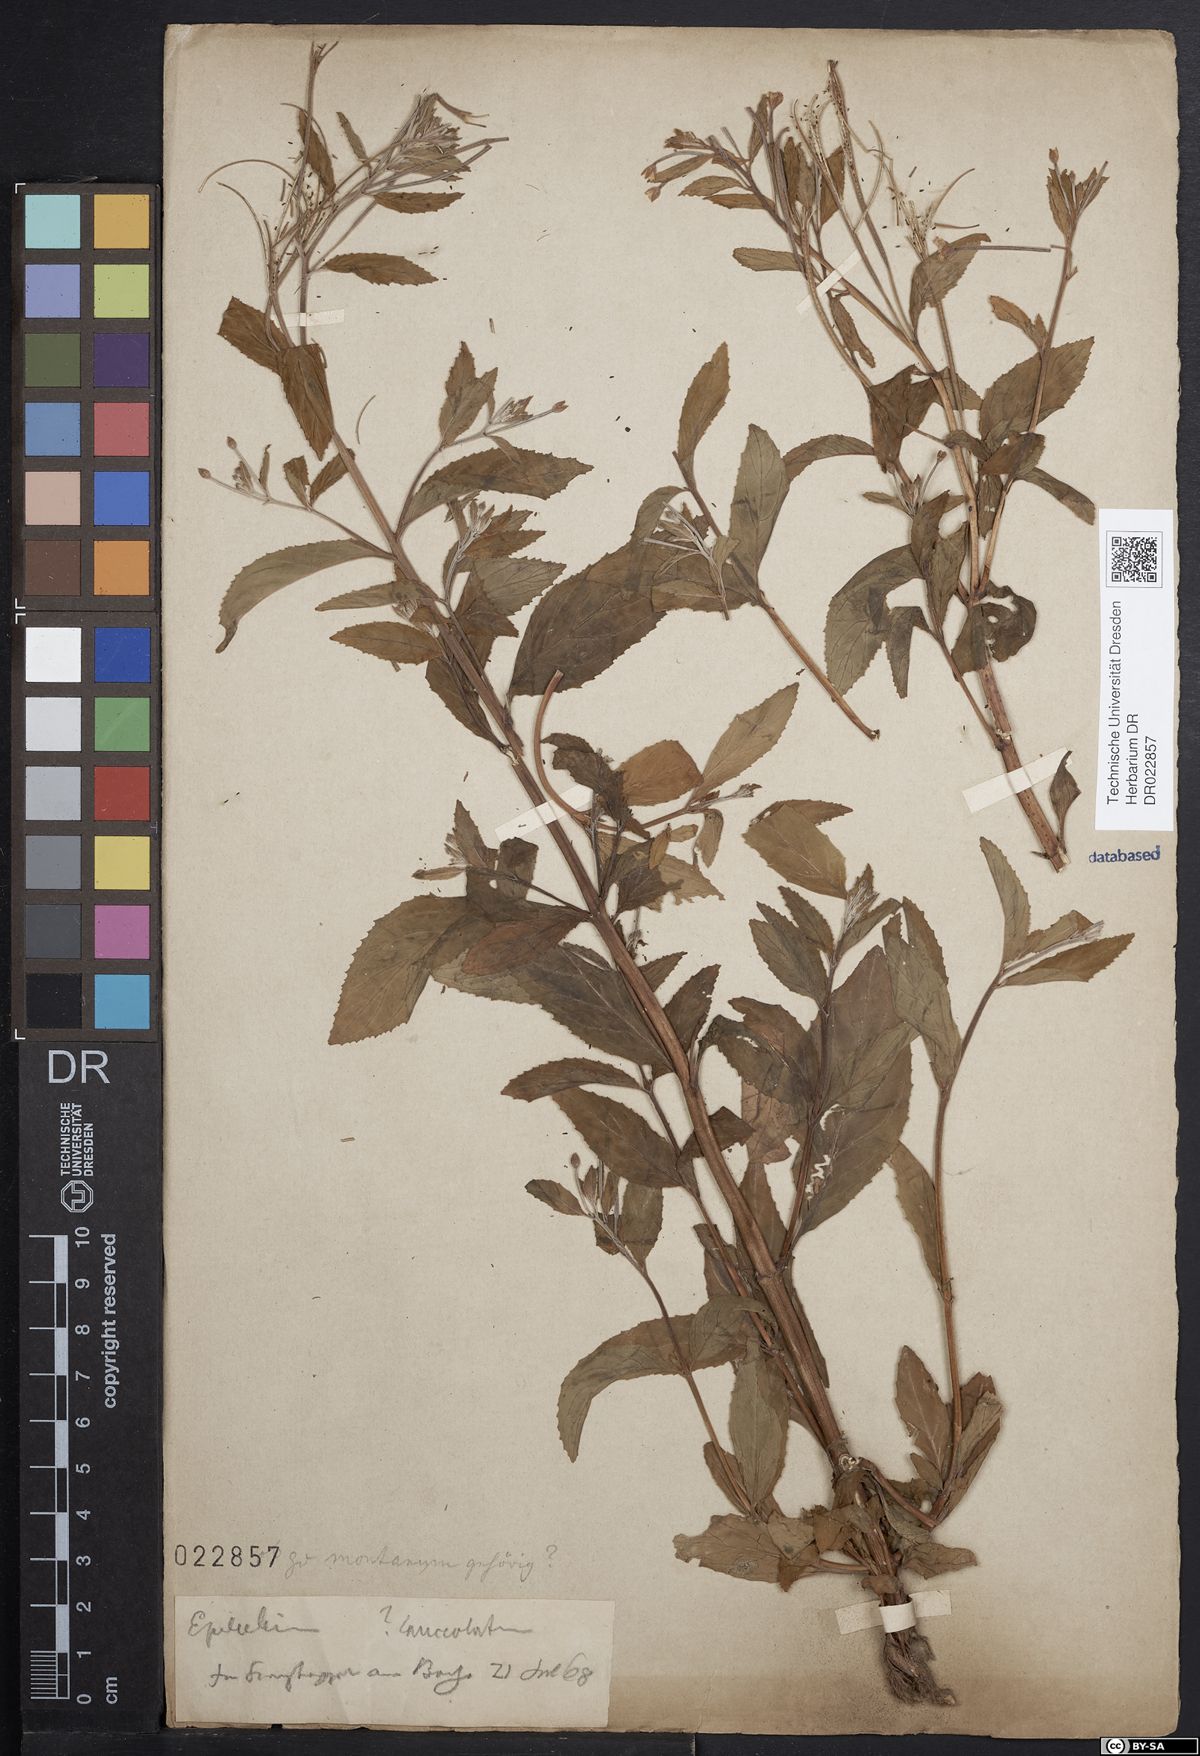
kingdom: Plantae
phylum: Tracheophyta
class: Magnoliopsida
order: Myrtales
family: Onagraceae
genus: Epilobium
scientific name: Epilobium montanum
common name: Broad-leaved willowherb
